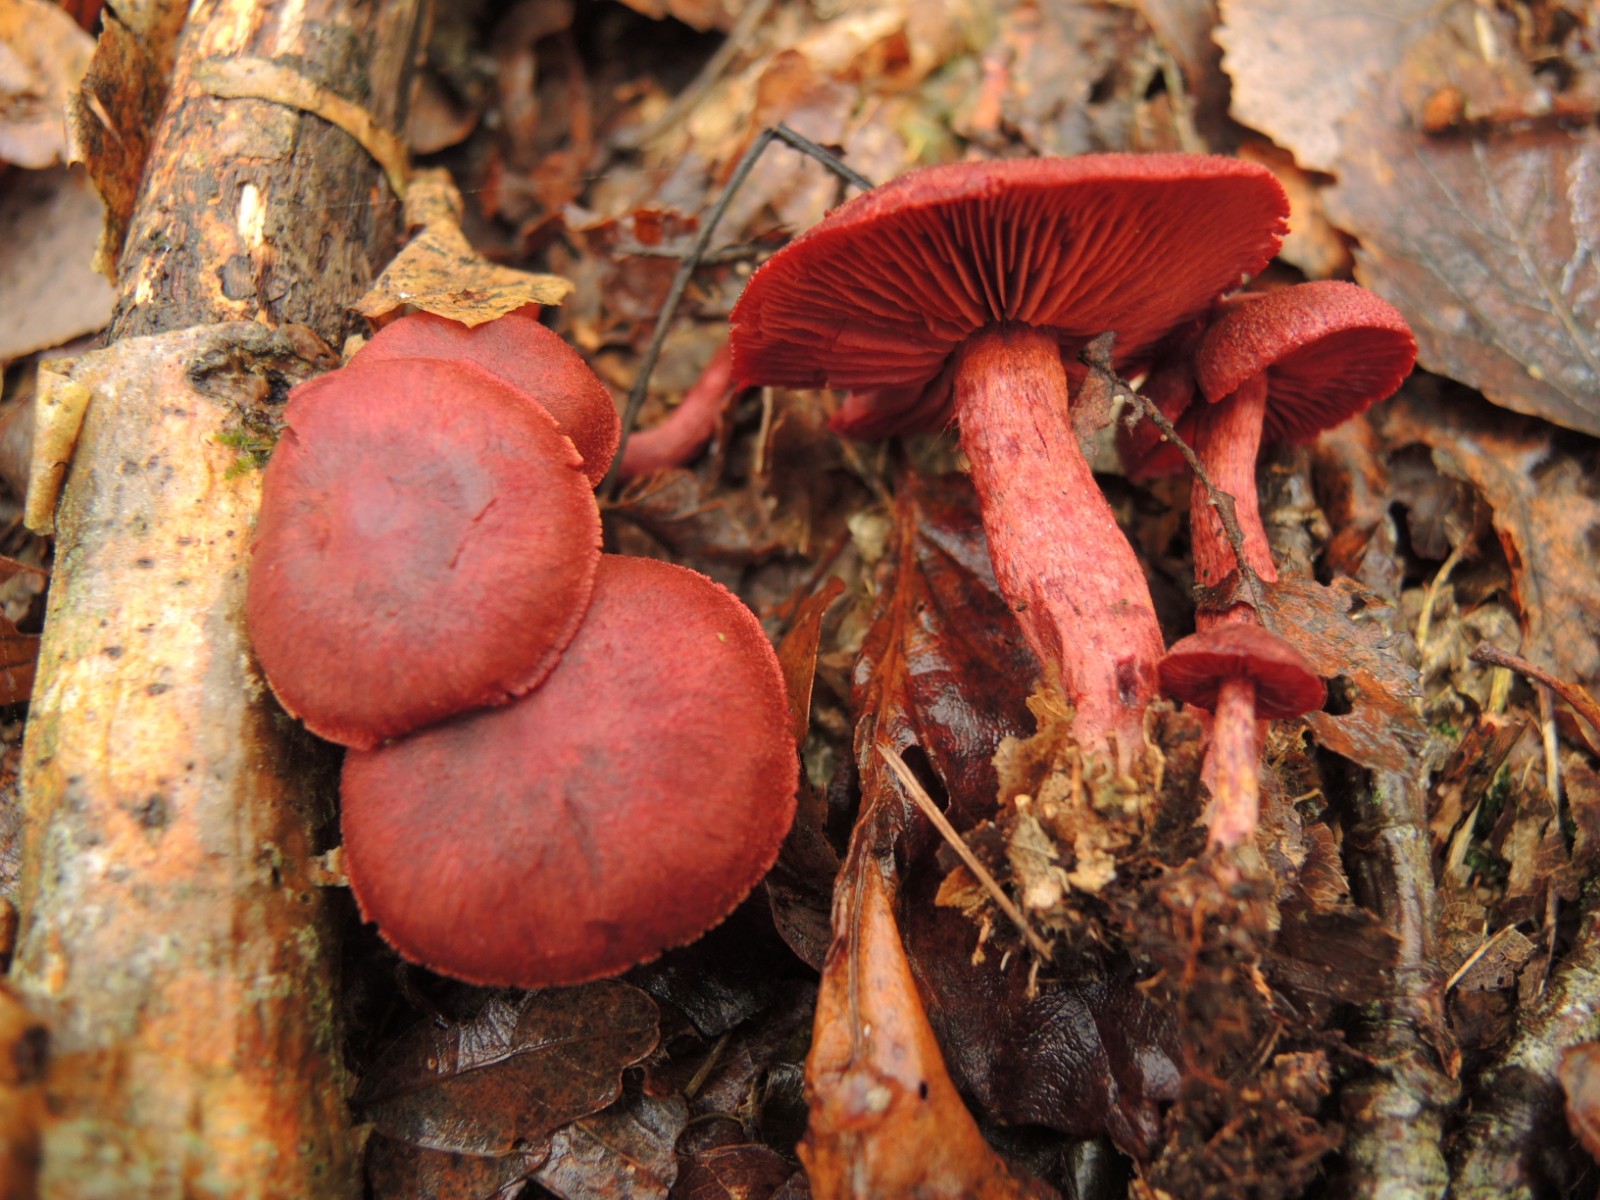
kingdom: Fungi
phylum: Basidiomycota
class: Agaricomycetes
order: Agaricales
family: Cortinariaceae
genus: Cortinarius
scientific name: Cortinarius sanguineus
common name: Bloodred webcap
